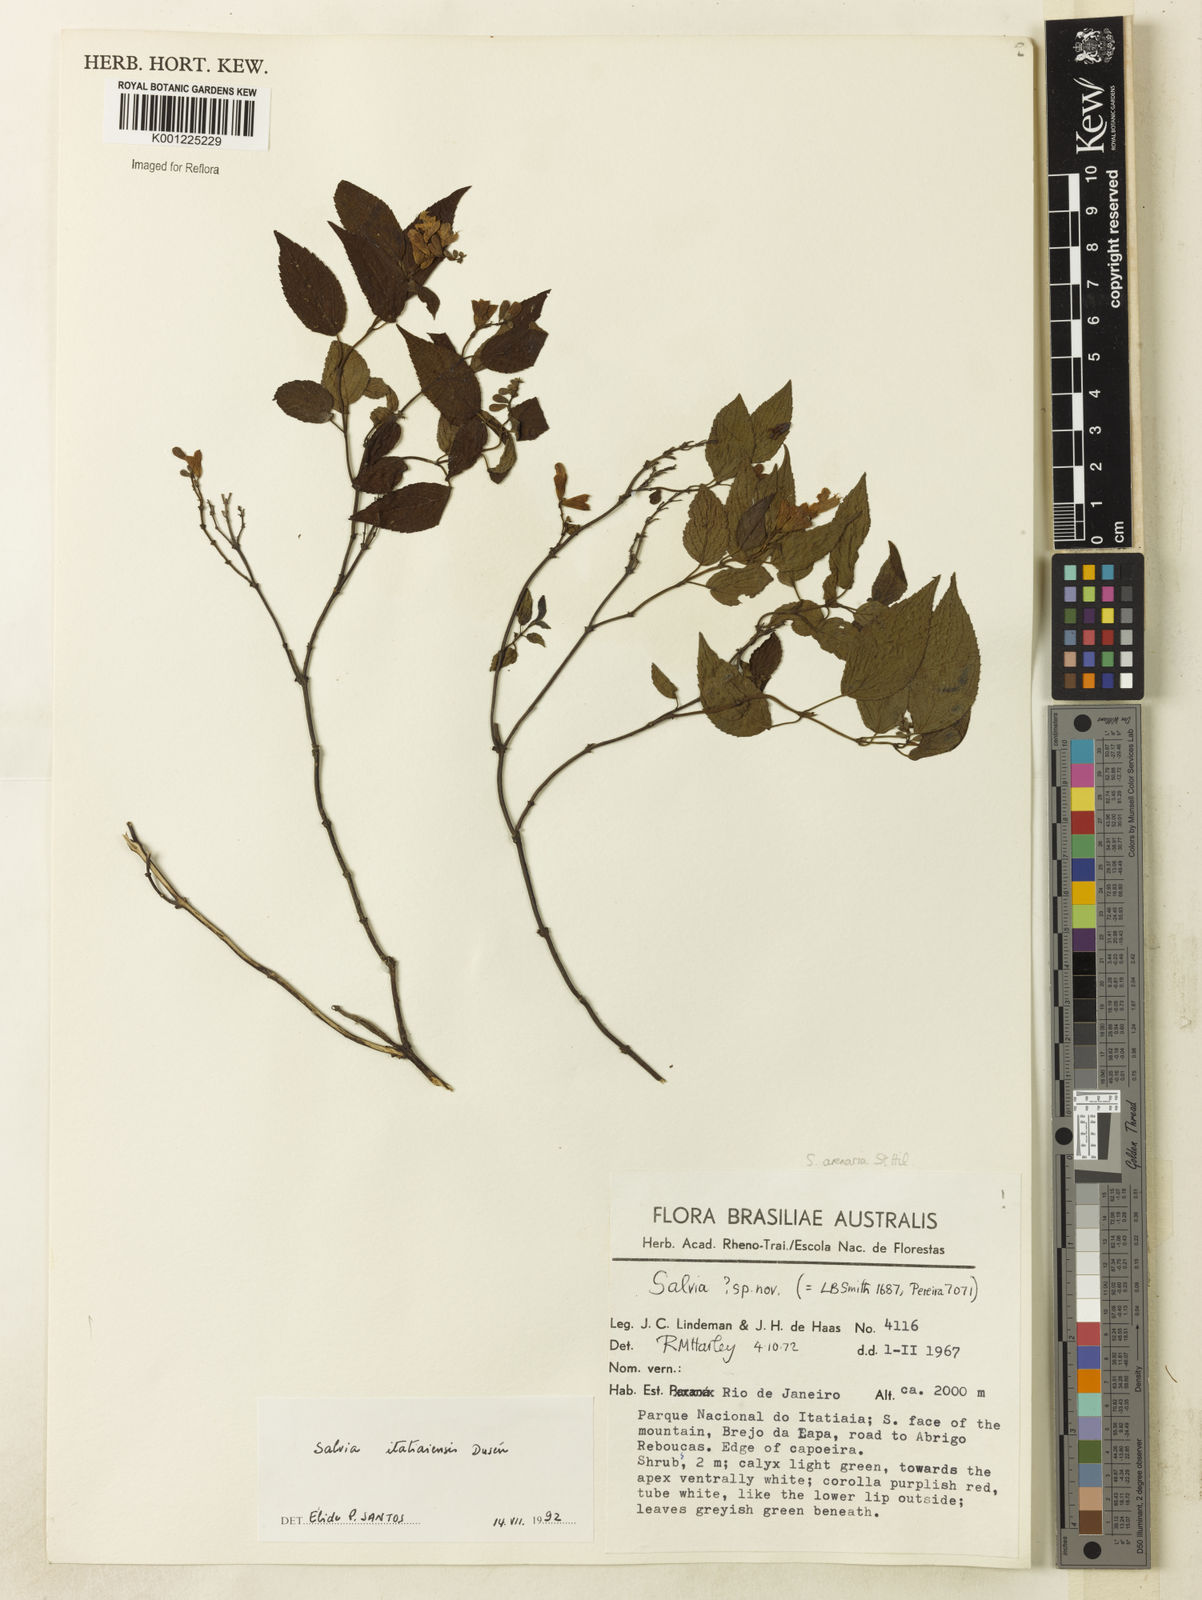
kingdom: Plantae
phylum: Tracheophyta
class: Magnoliopsida
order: Lamiales
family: Lamiaceae
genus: Salvia
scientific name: Salvia
